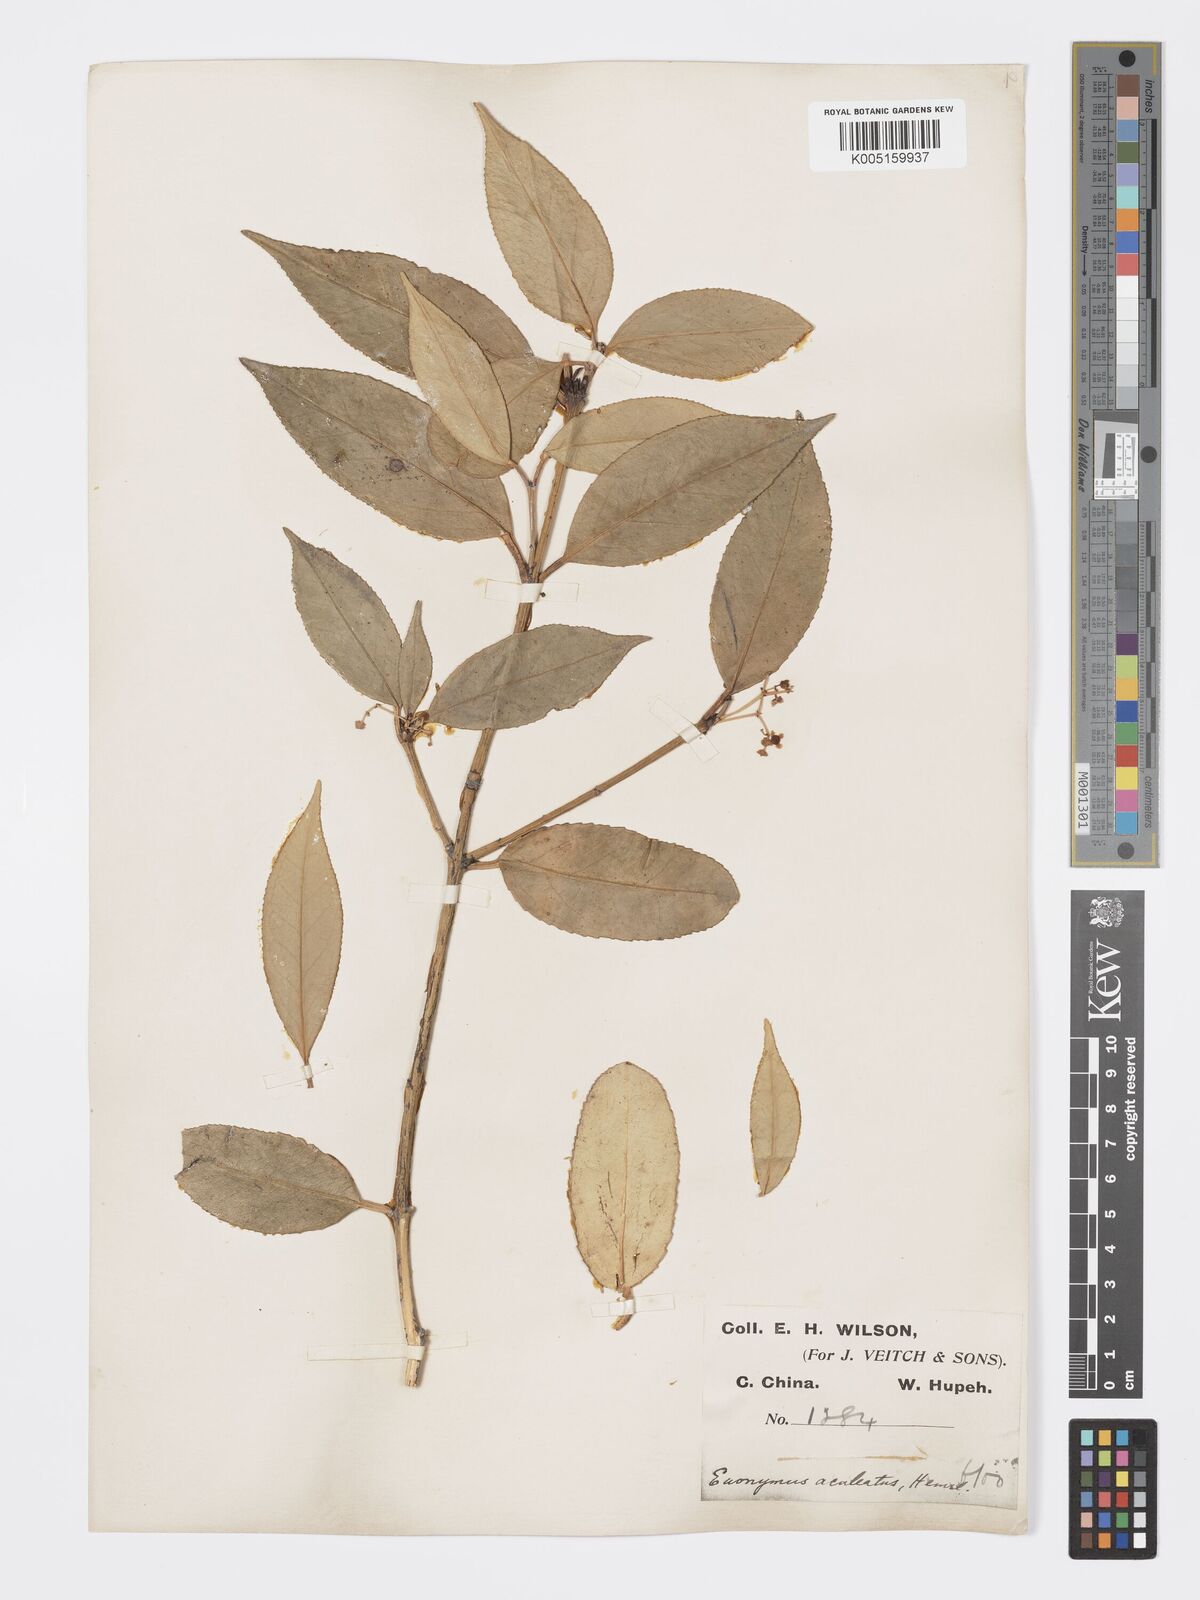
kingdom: Plantae
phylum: Tracheophyta
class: Magnoliopsida
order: Celastrales
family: Celastraceae
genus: Euonymus
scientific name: Euonymus aculeatus
